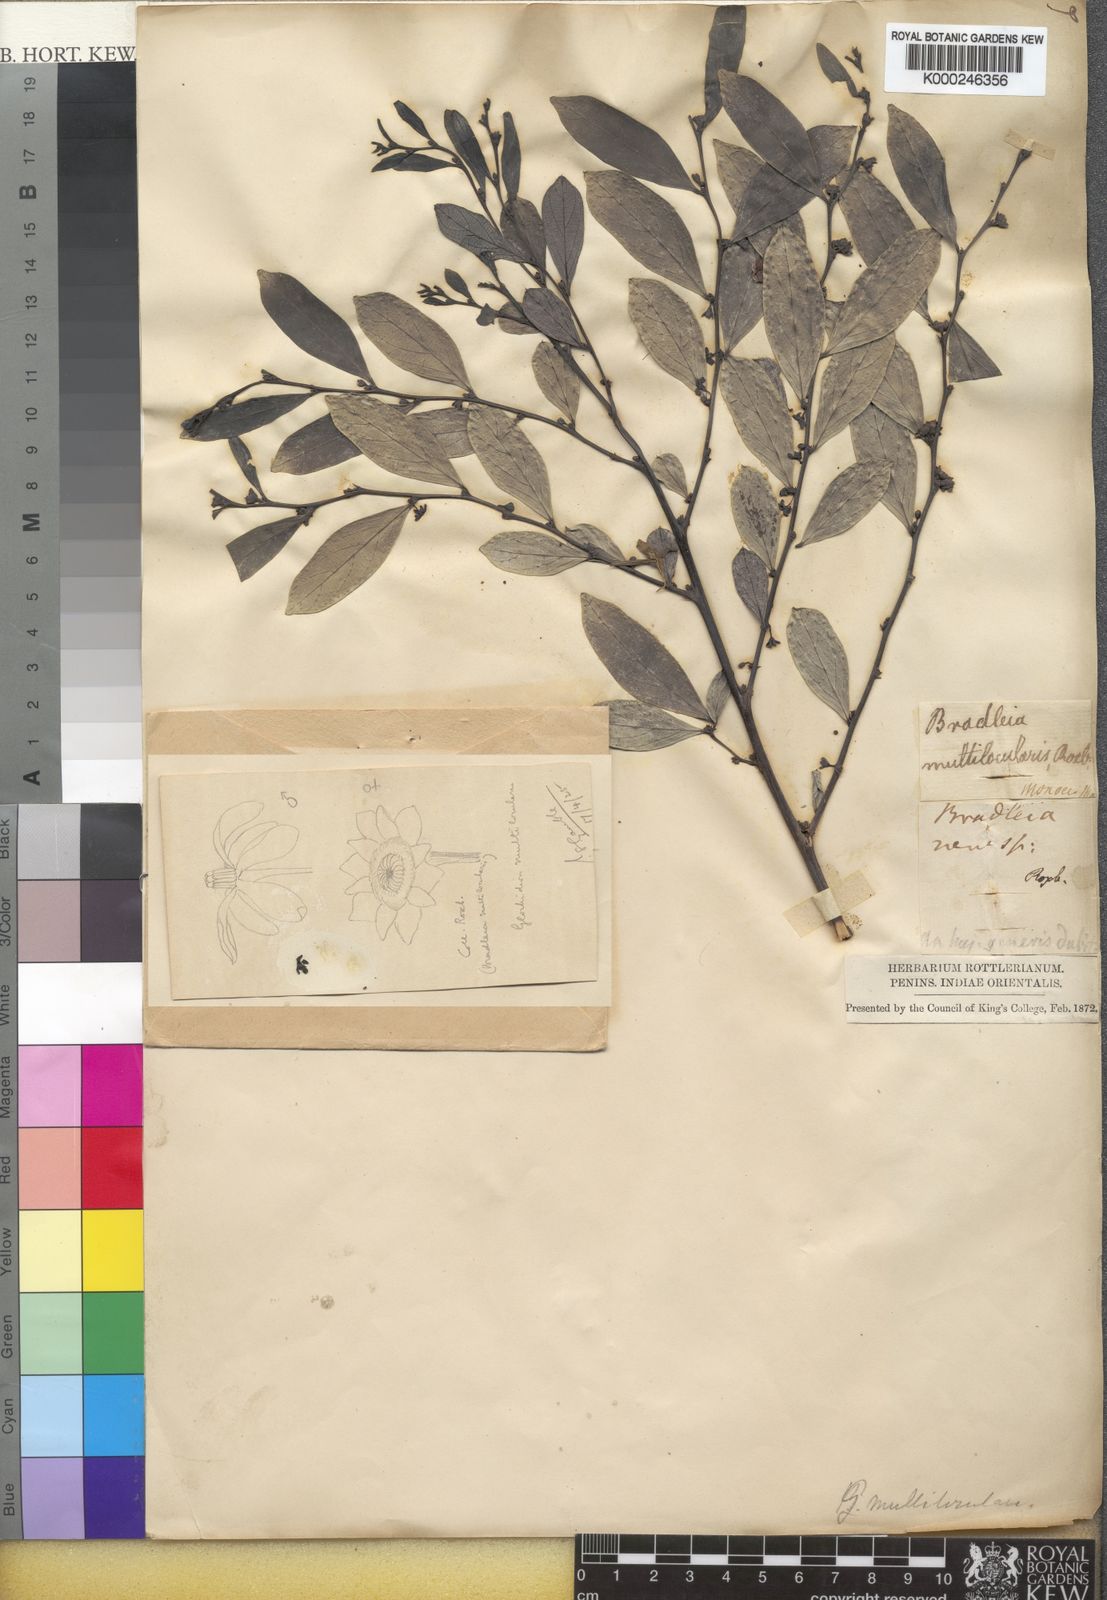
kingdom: Plantae
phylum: Tracheophyta
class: Magnoliopsida
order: Malpighiales
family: Phyllanthaceae
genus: Glochidion
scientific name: Glochidion multiloculare
